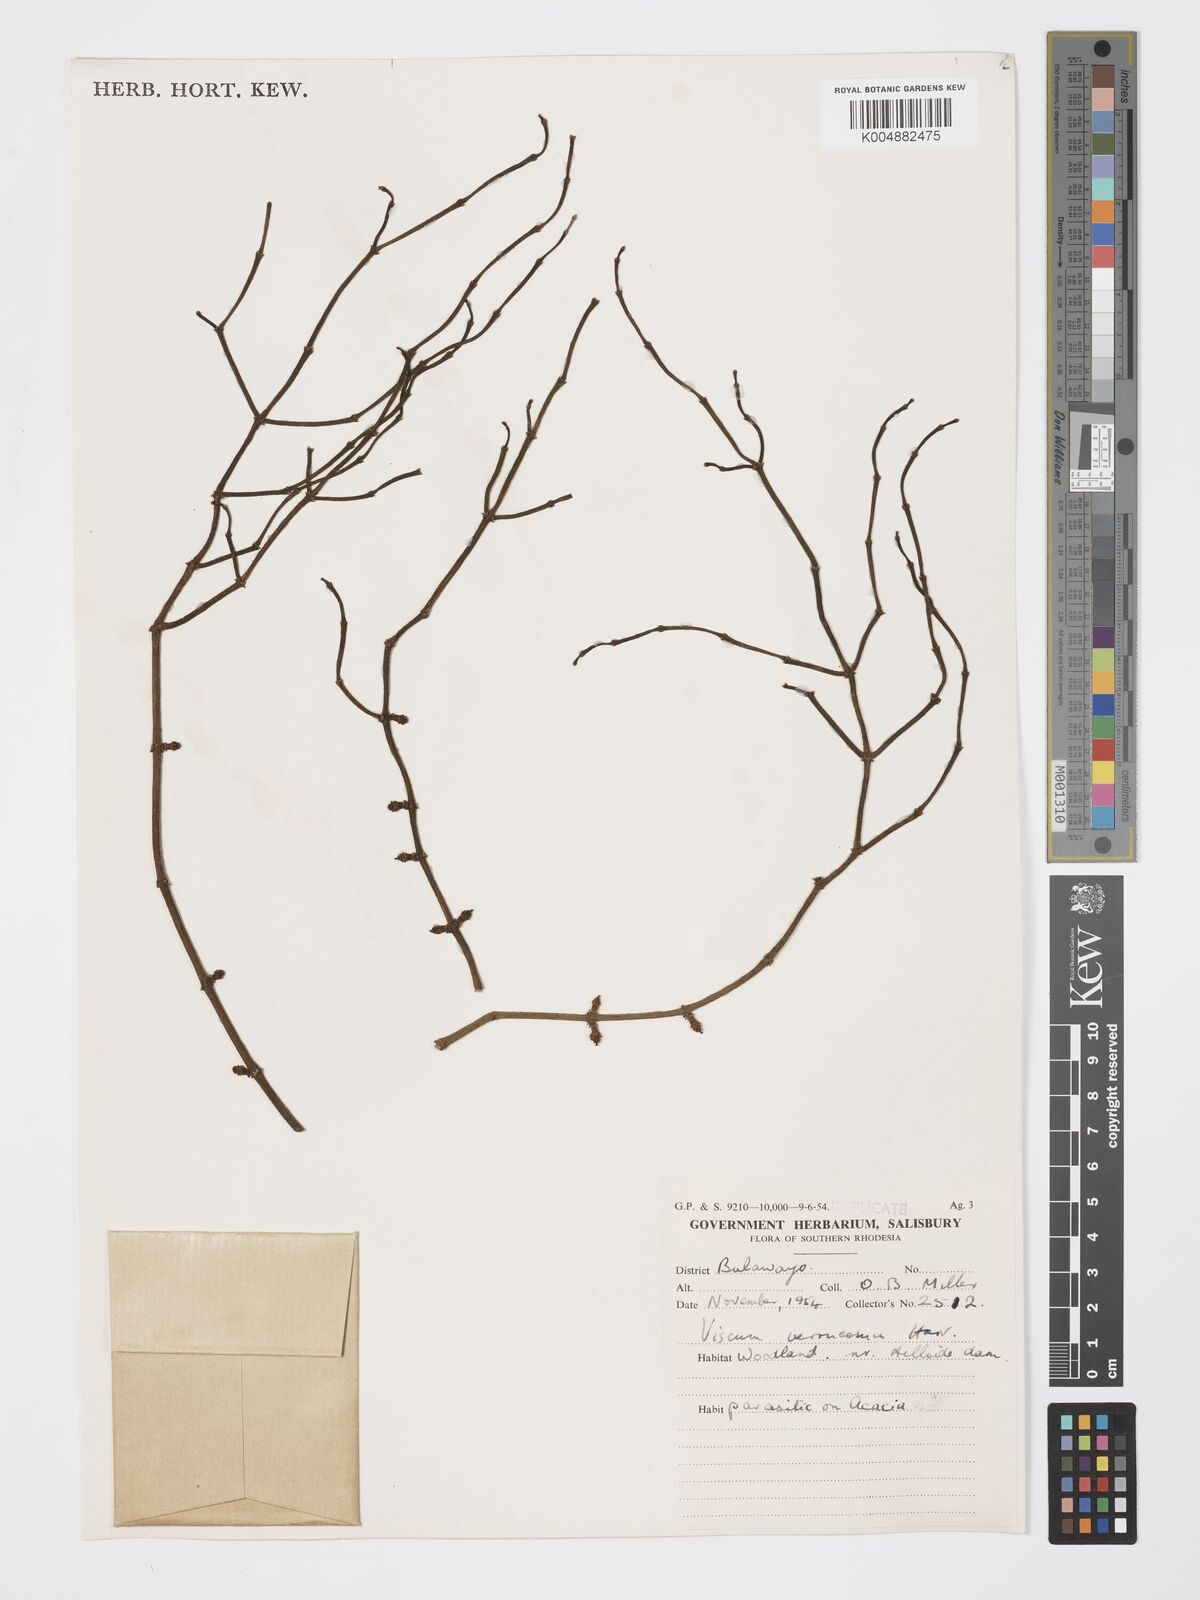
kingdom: Plantae
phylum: Tracheophyta
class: Magnoliopsida
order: Santalales
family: Viscaceae
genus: Viscum
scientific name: Viscum verrucosum
